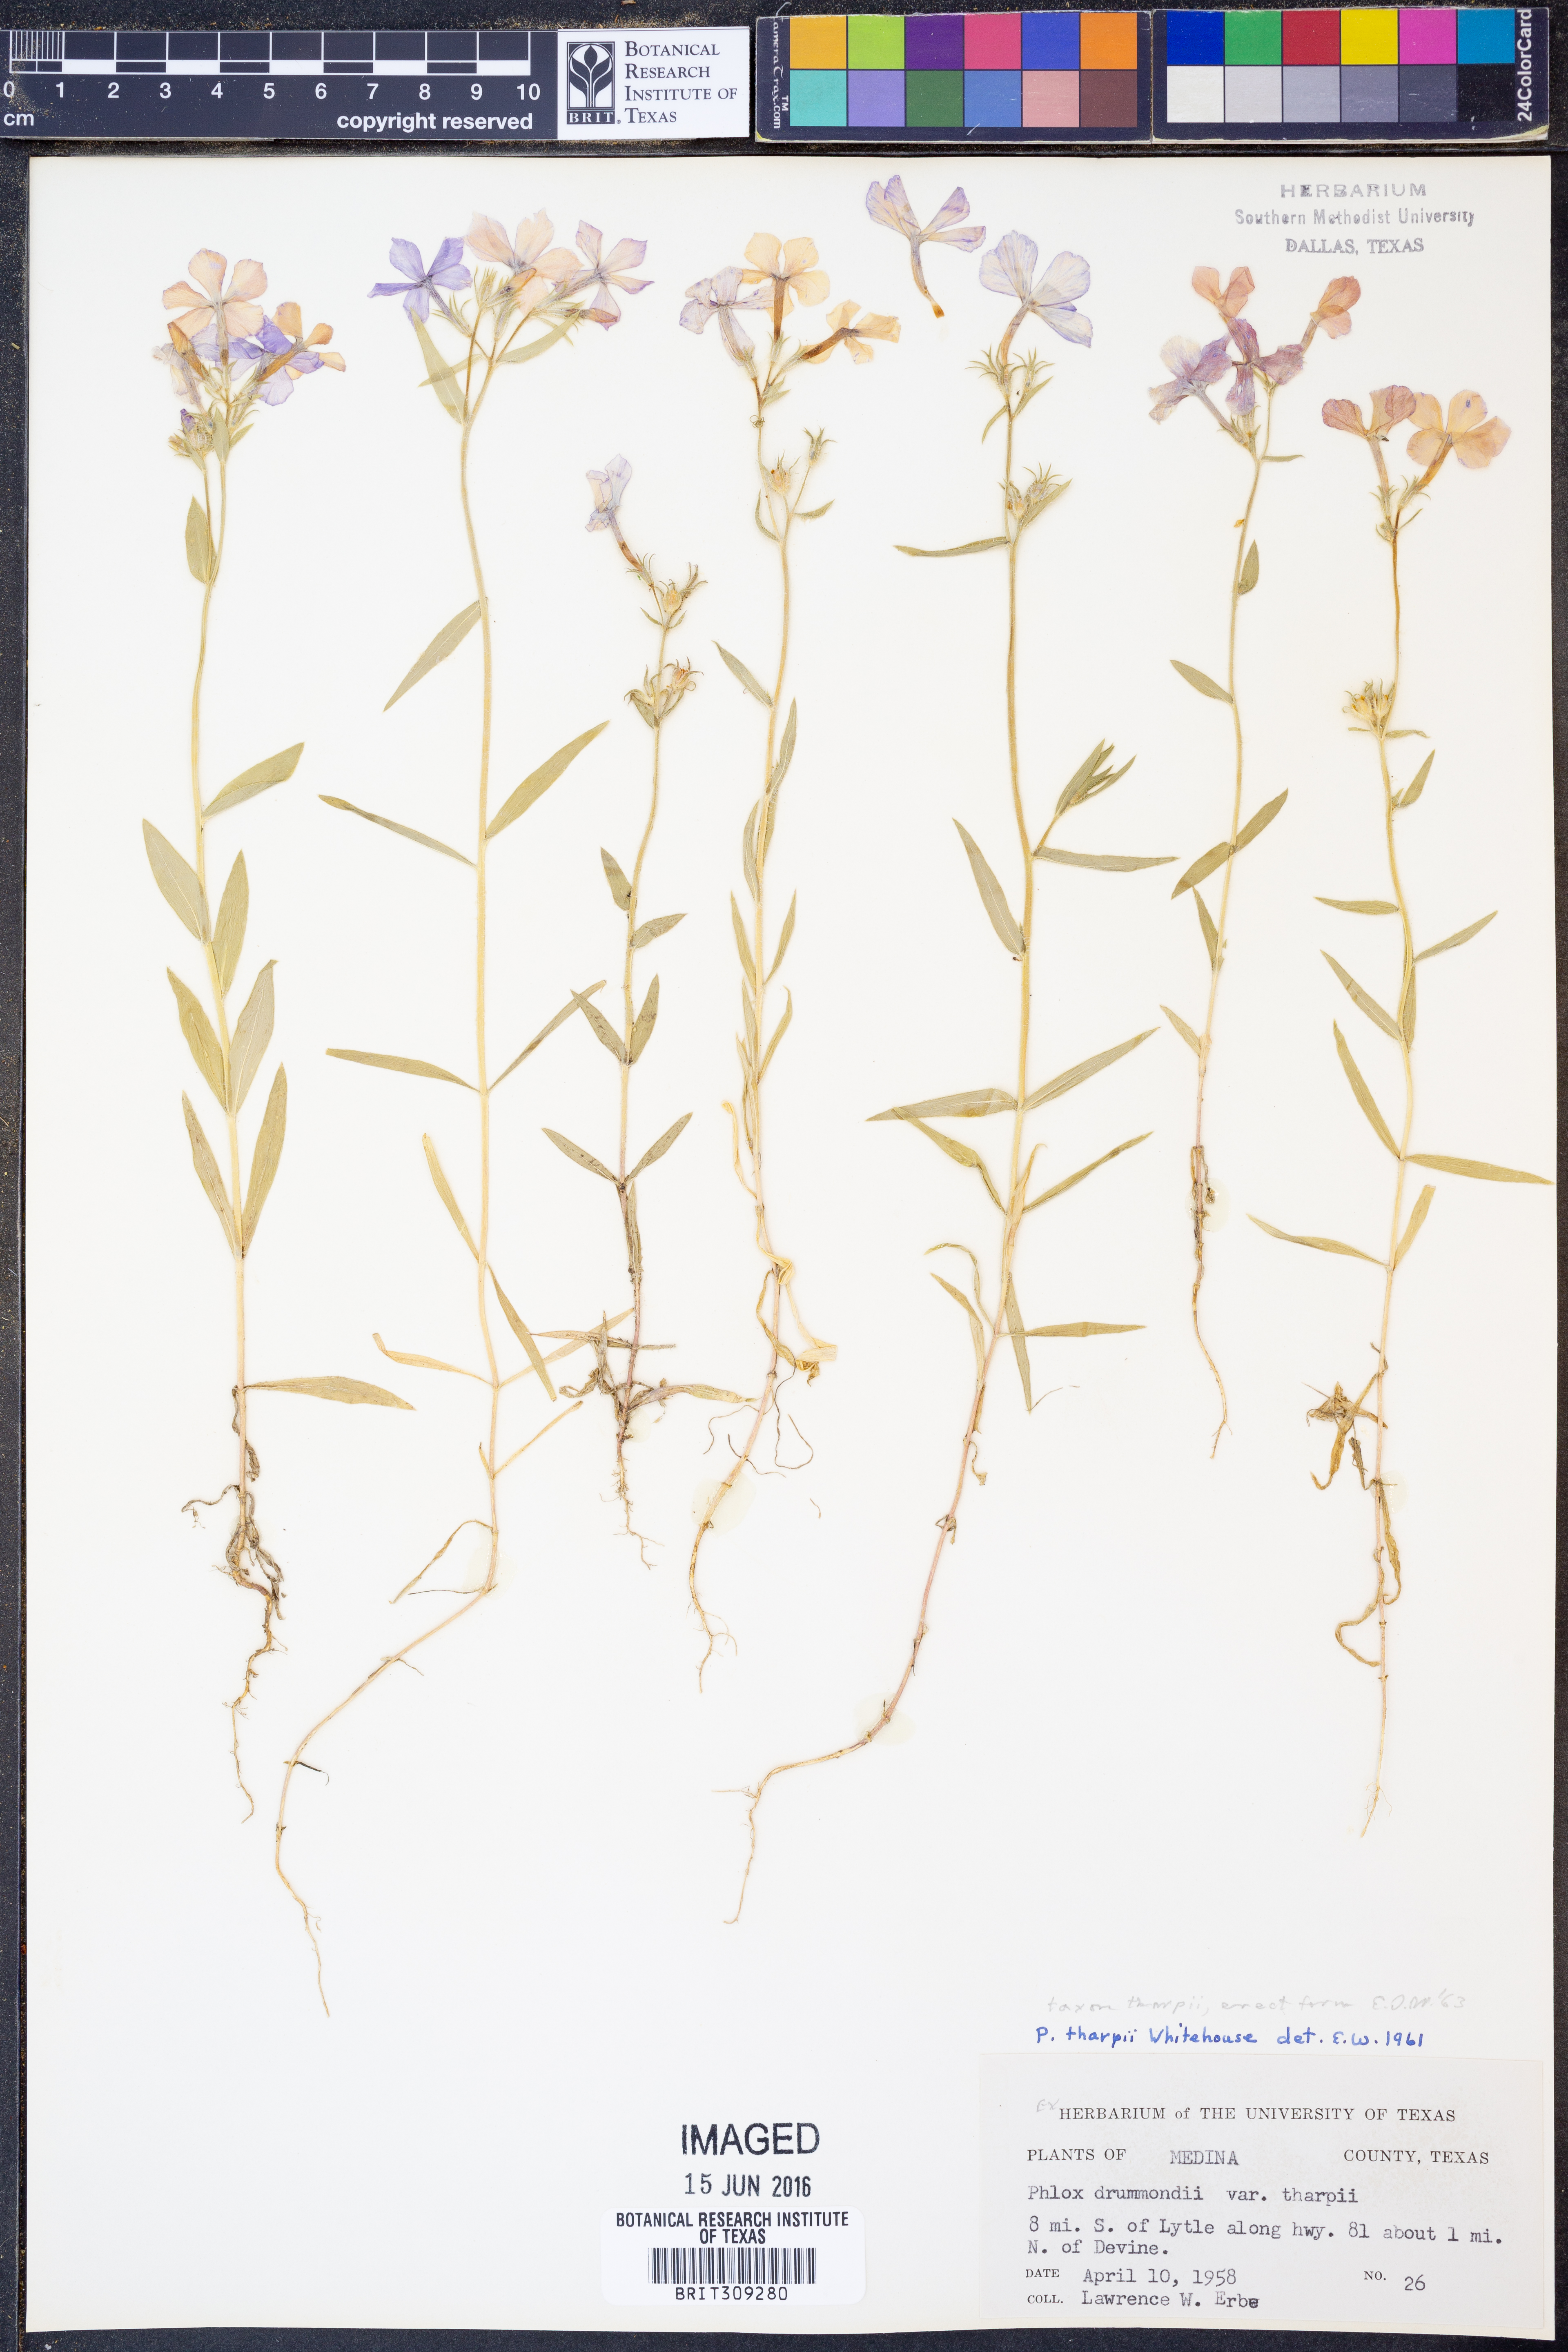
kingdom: Plantae
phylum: Tracheophyta
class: Magnoliopsida
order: Ericales
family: Polemoniaceae
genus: Phlox
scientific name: Phlox drummondii
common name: Drummond's phlox
